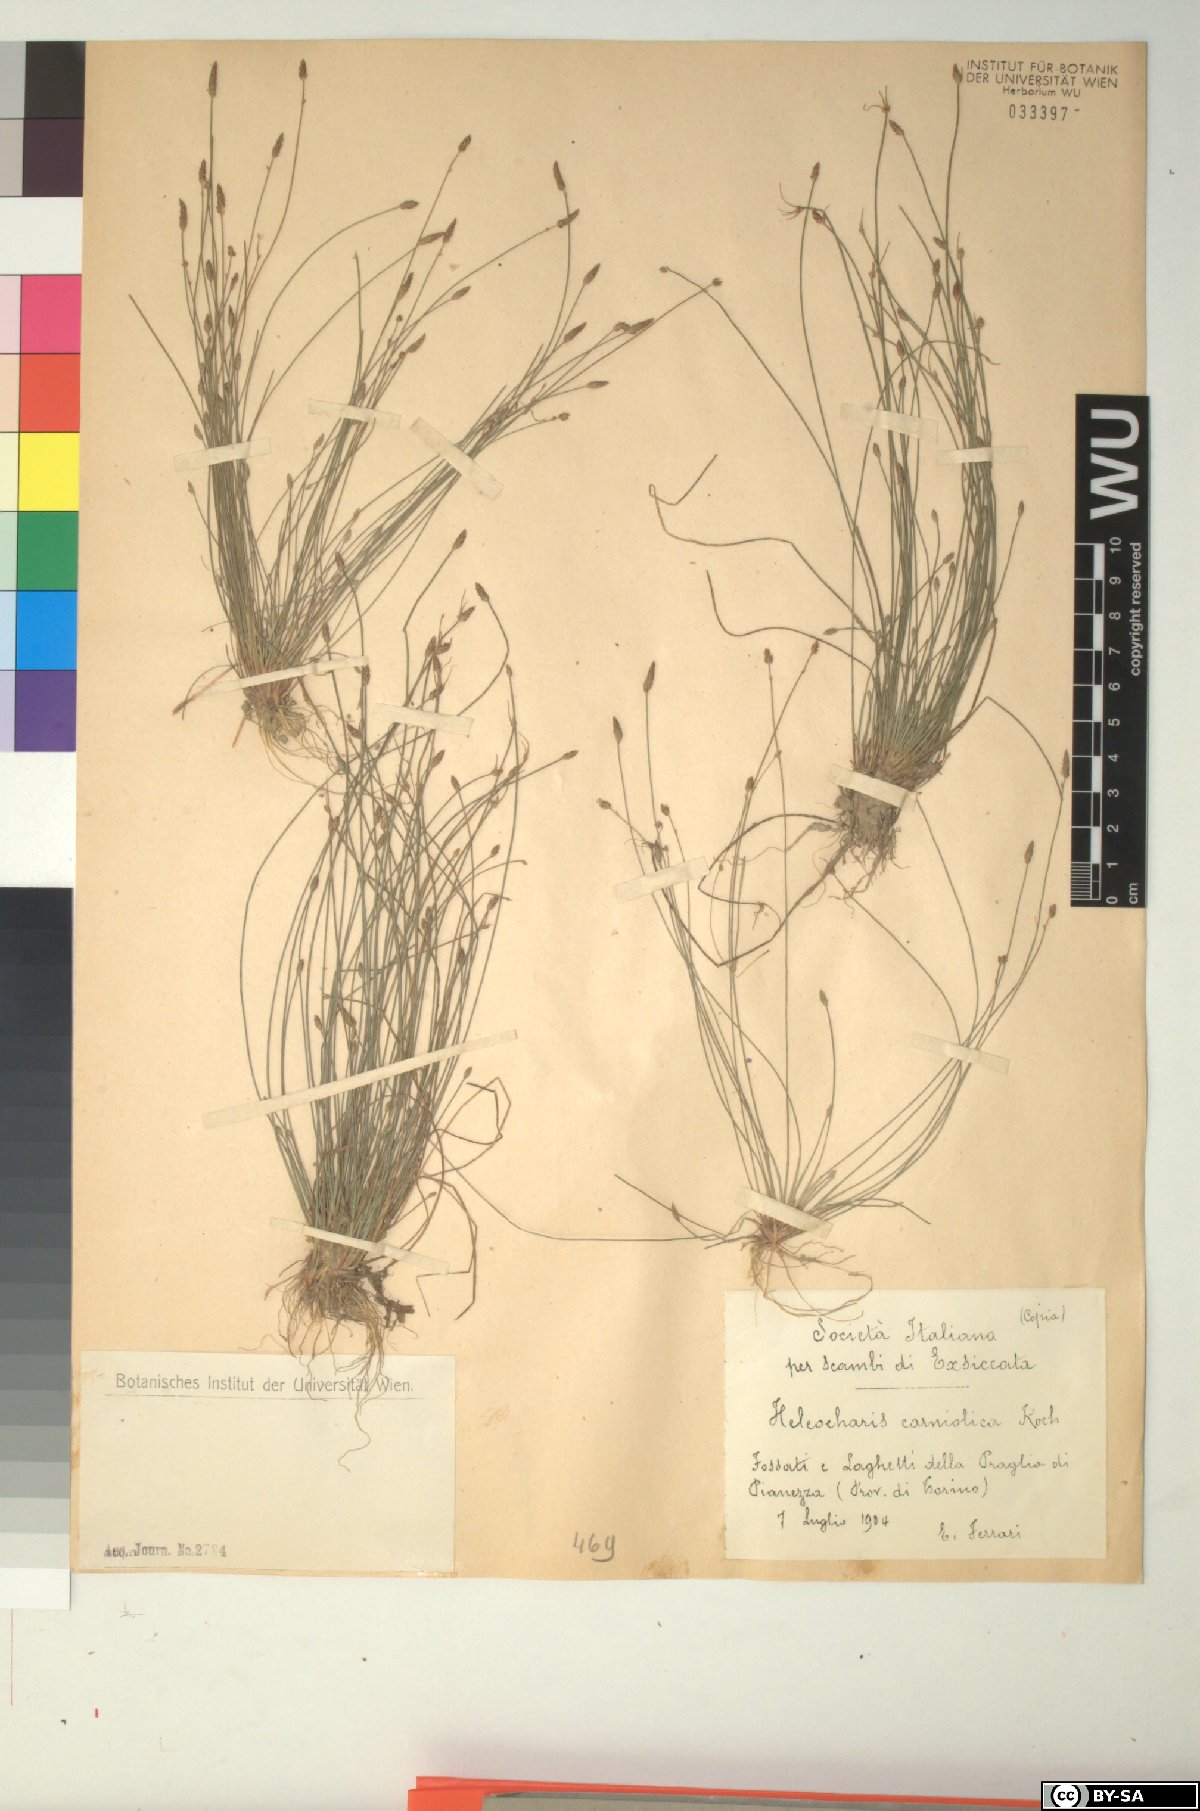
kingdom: Plantae
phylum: Tracheophyta
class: Liliopsida
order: Poales
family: Cyperaceae
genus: Eleocharis
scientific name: Eleocharis carniolica
